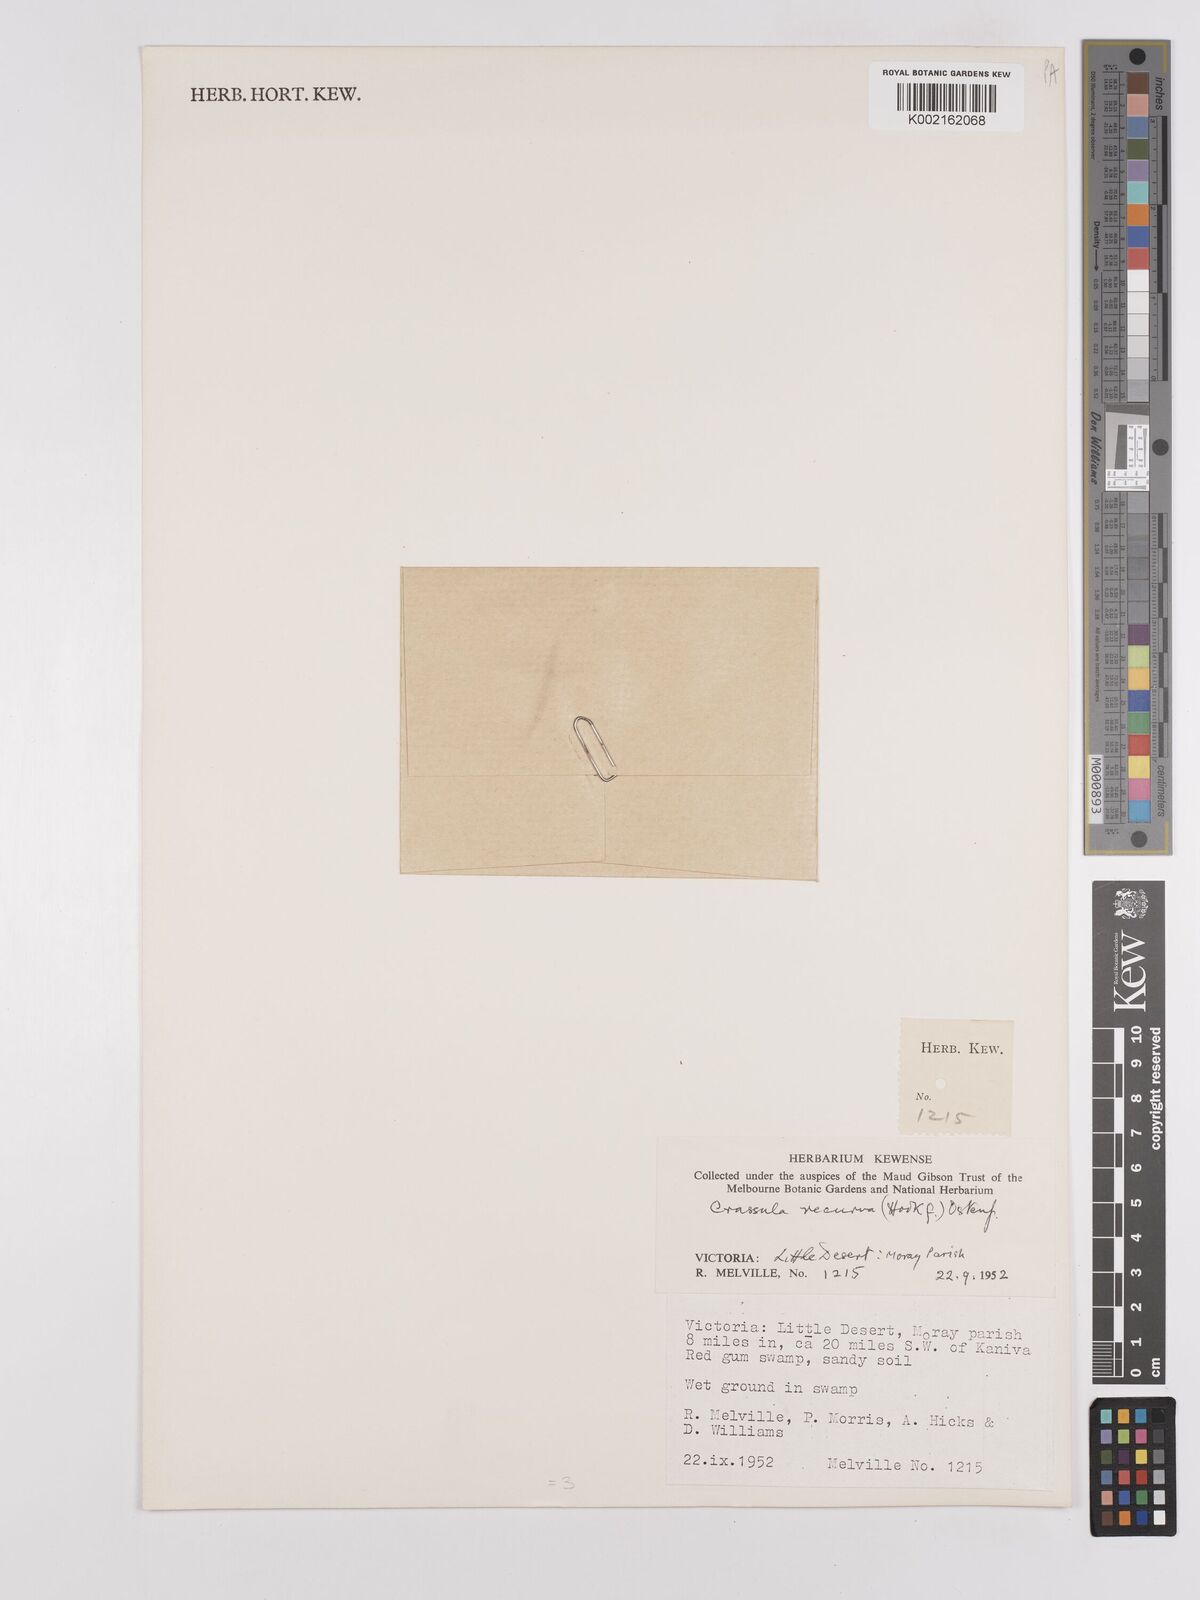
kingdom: Plantae
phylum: Tracheophyta
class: Magnoliopsida
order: Saxifragales
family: Crassulaceae
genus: Crassula
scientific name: Crassula helmsii
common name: New zealand pigmyweed
